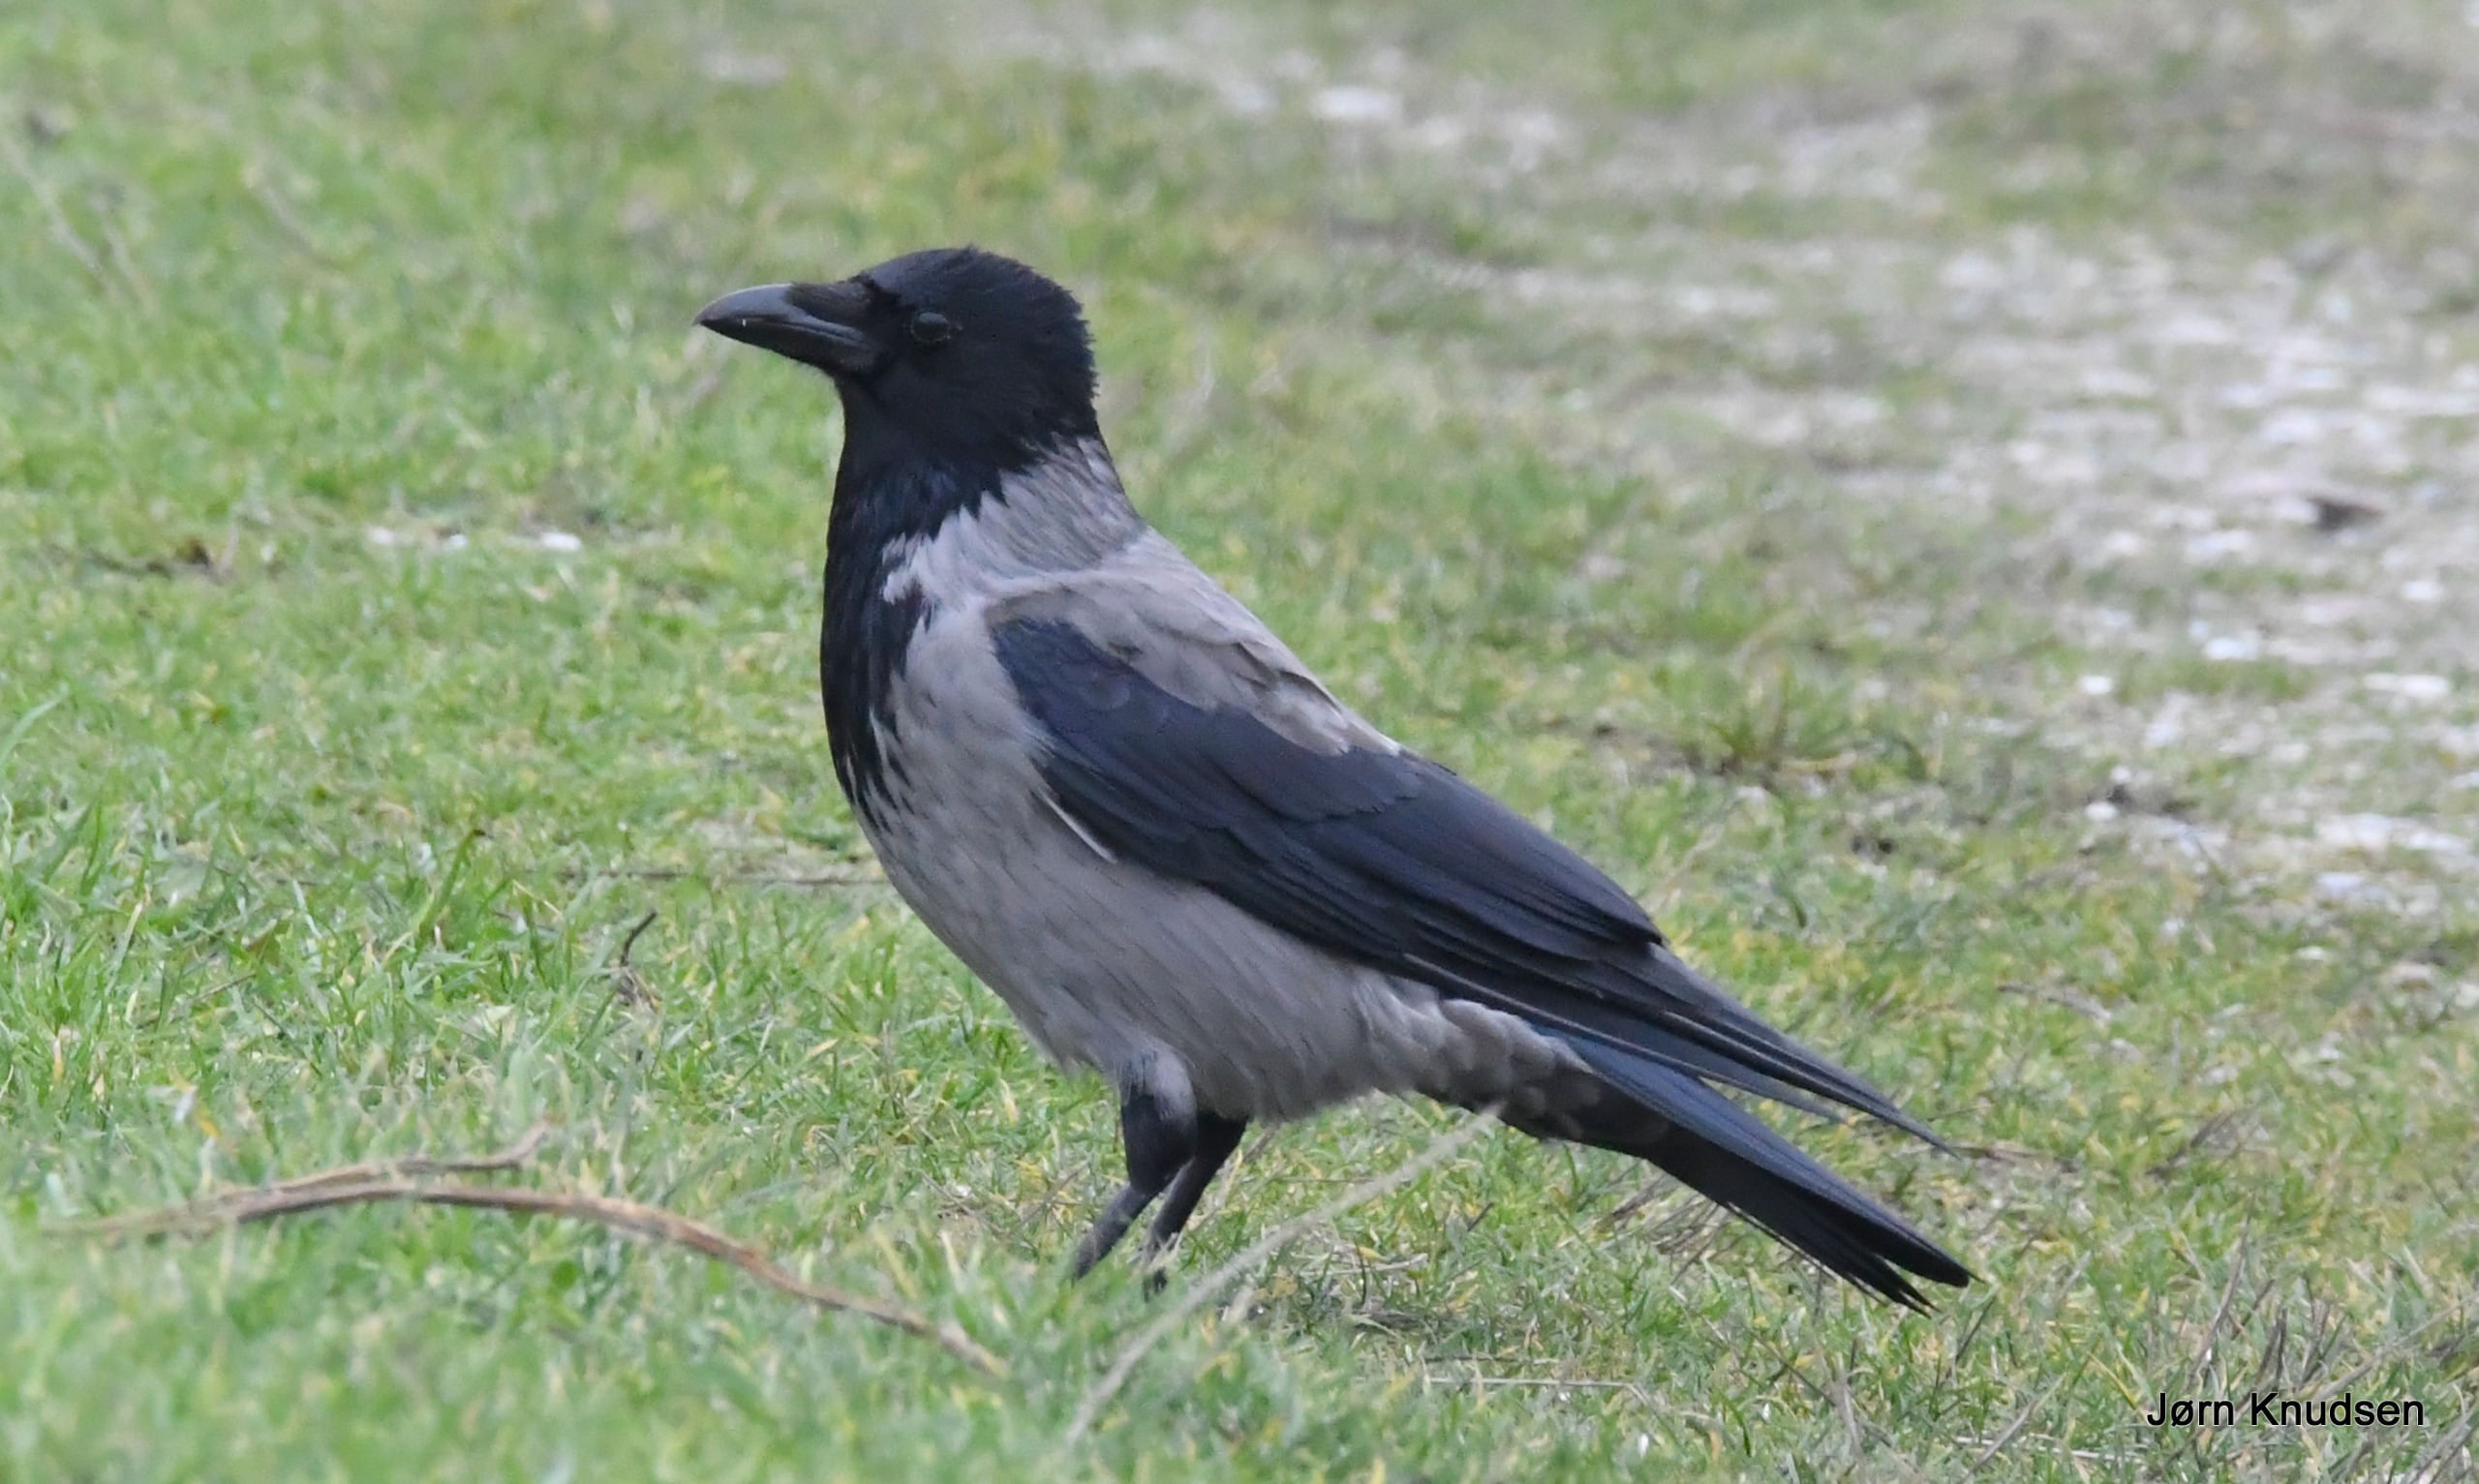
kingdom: Animalia
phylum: Chordata
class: Aves
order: Passeriformes
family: Corvidae
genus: Corvus
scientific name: Corvus cornix
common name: Gråkrage
